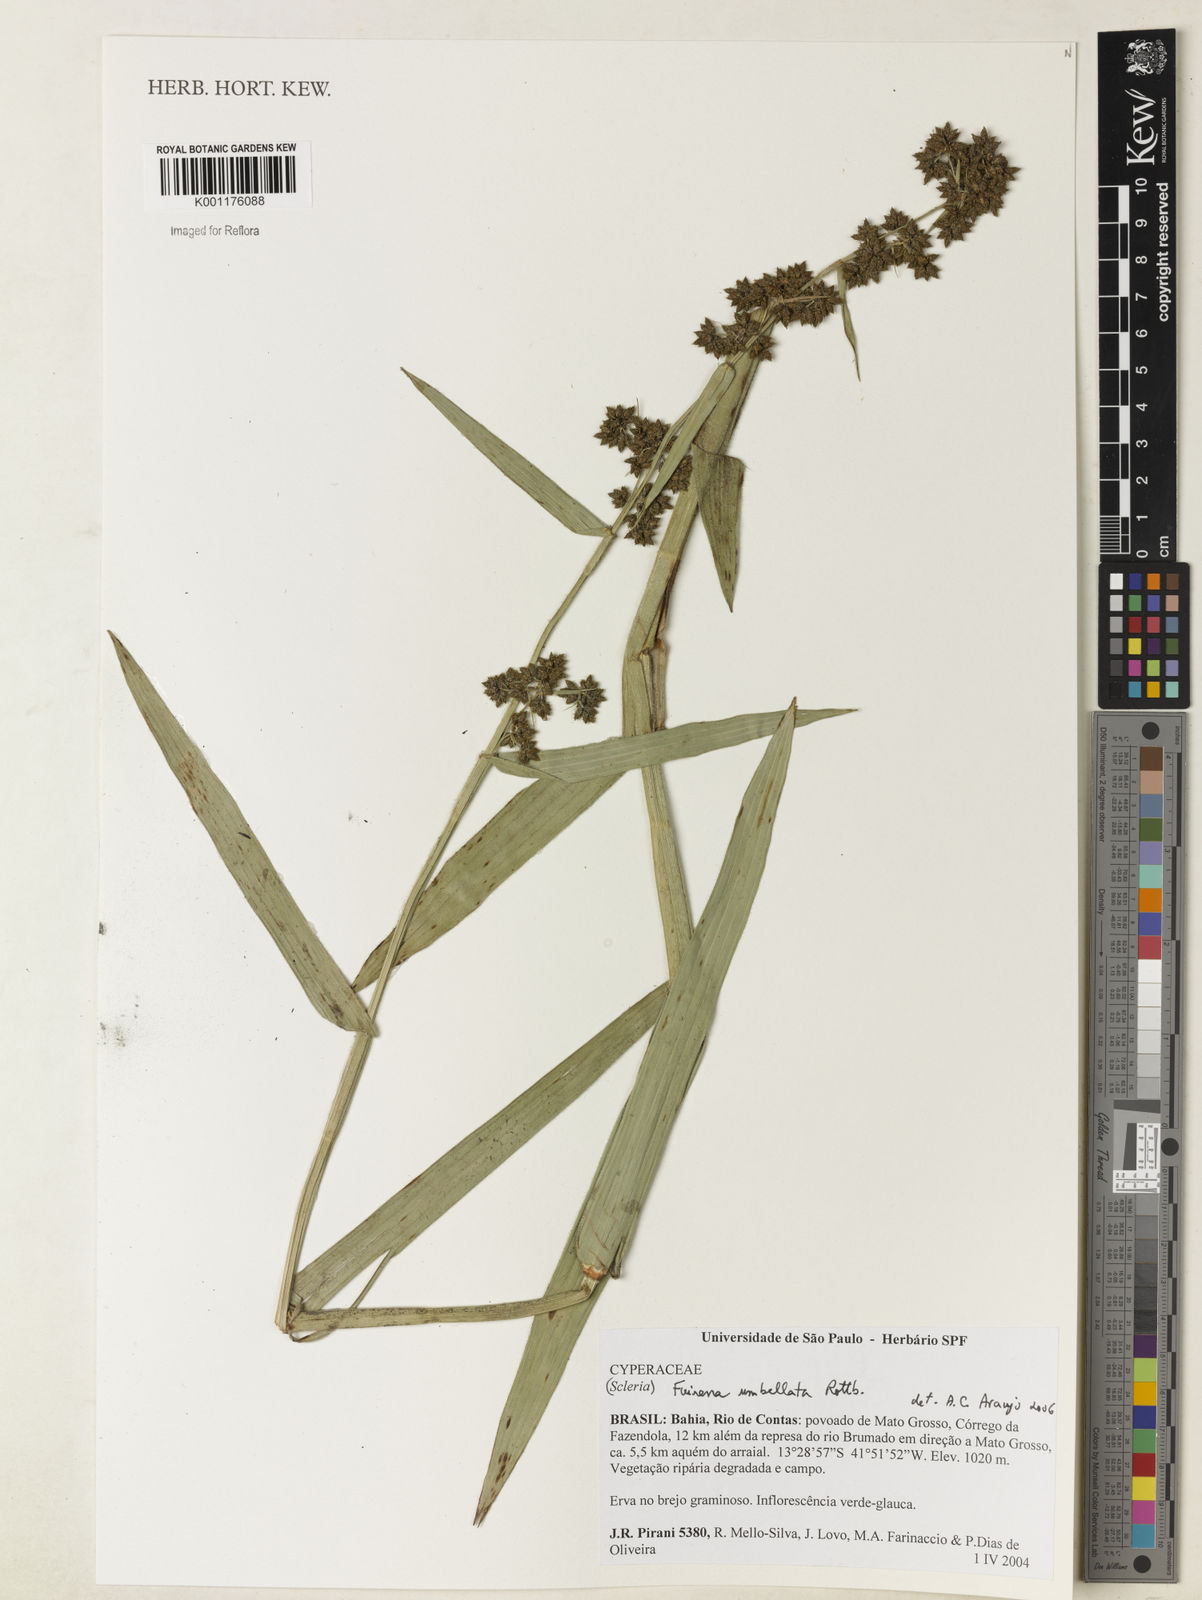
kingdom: Plantae
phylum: Tracheophyta
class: Liliopsida
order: Poales
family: Cyperaceae
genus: Fuirena
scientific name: Fuirena umbellata
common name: Yefen
